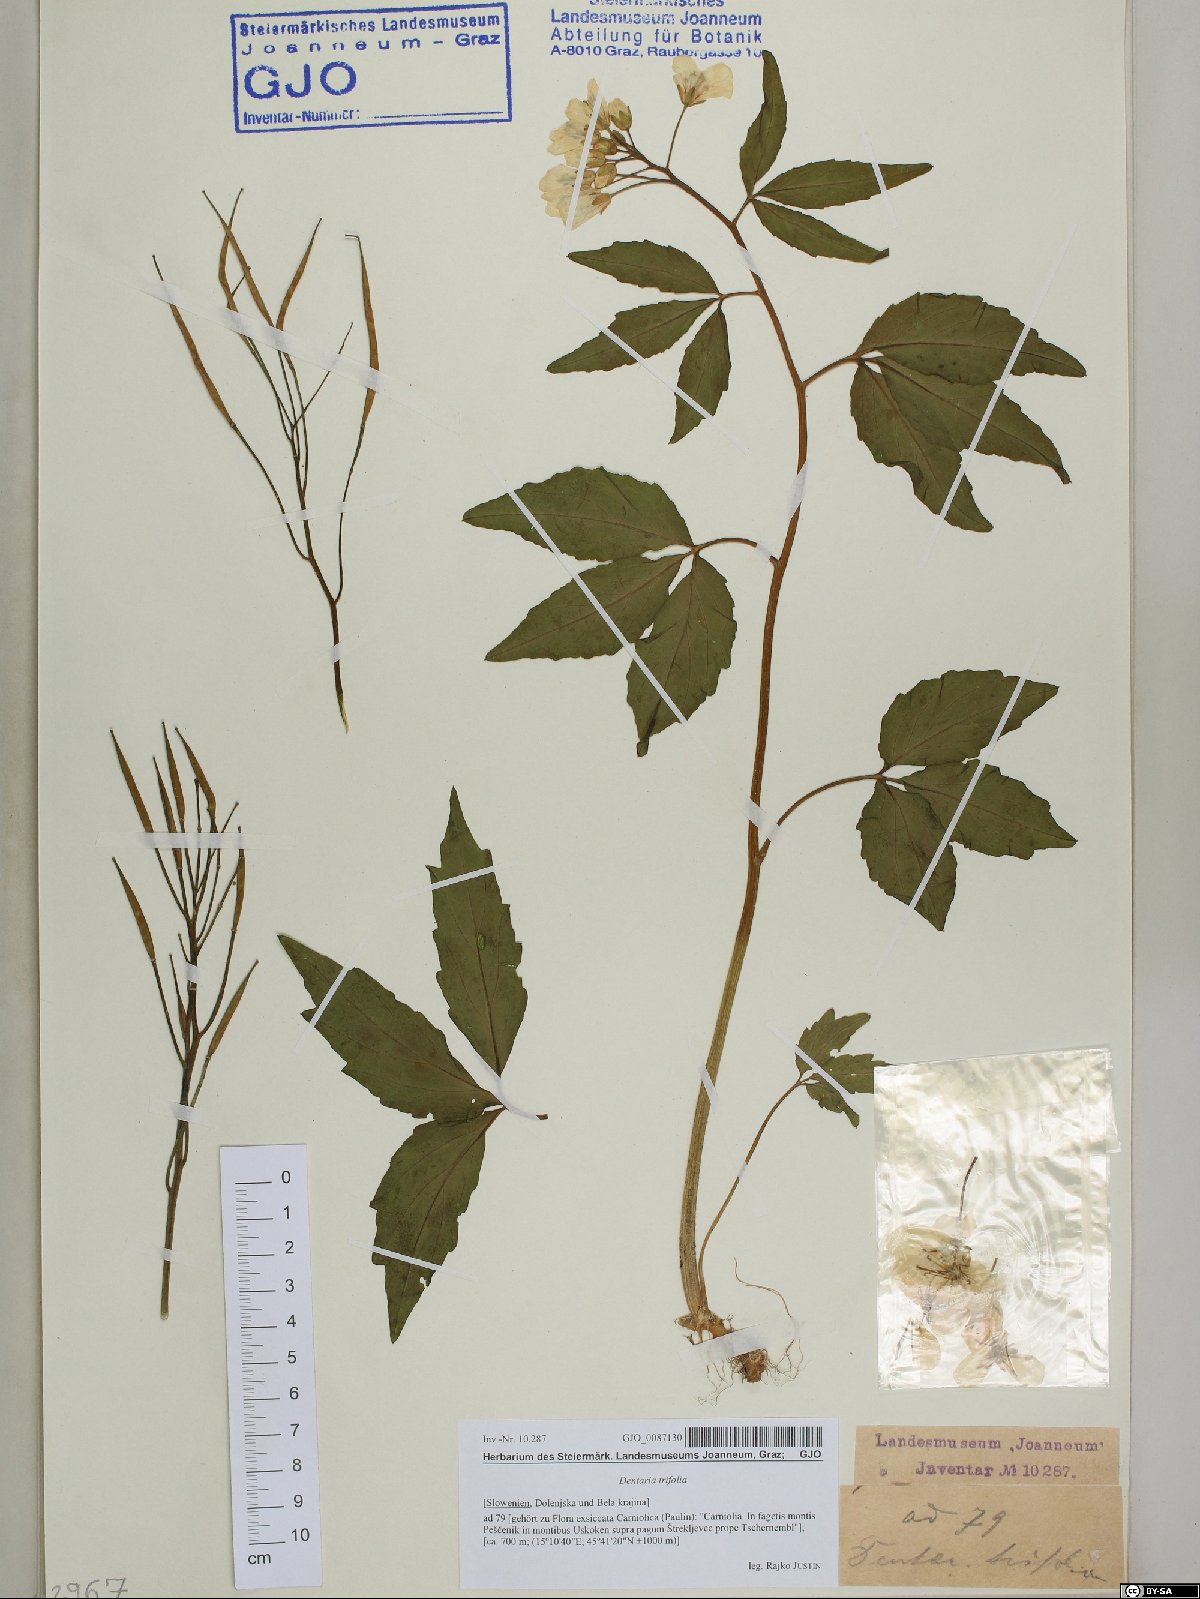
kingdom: Plantae
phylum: Tracheophyta
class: Magnoliopsida
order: Brassicales
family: Brassicaceae
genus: Cardamine
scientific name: Cardamine waldsteinii
